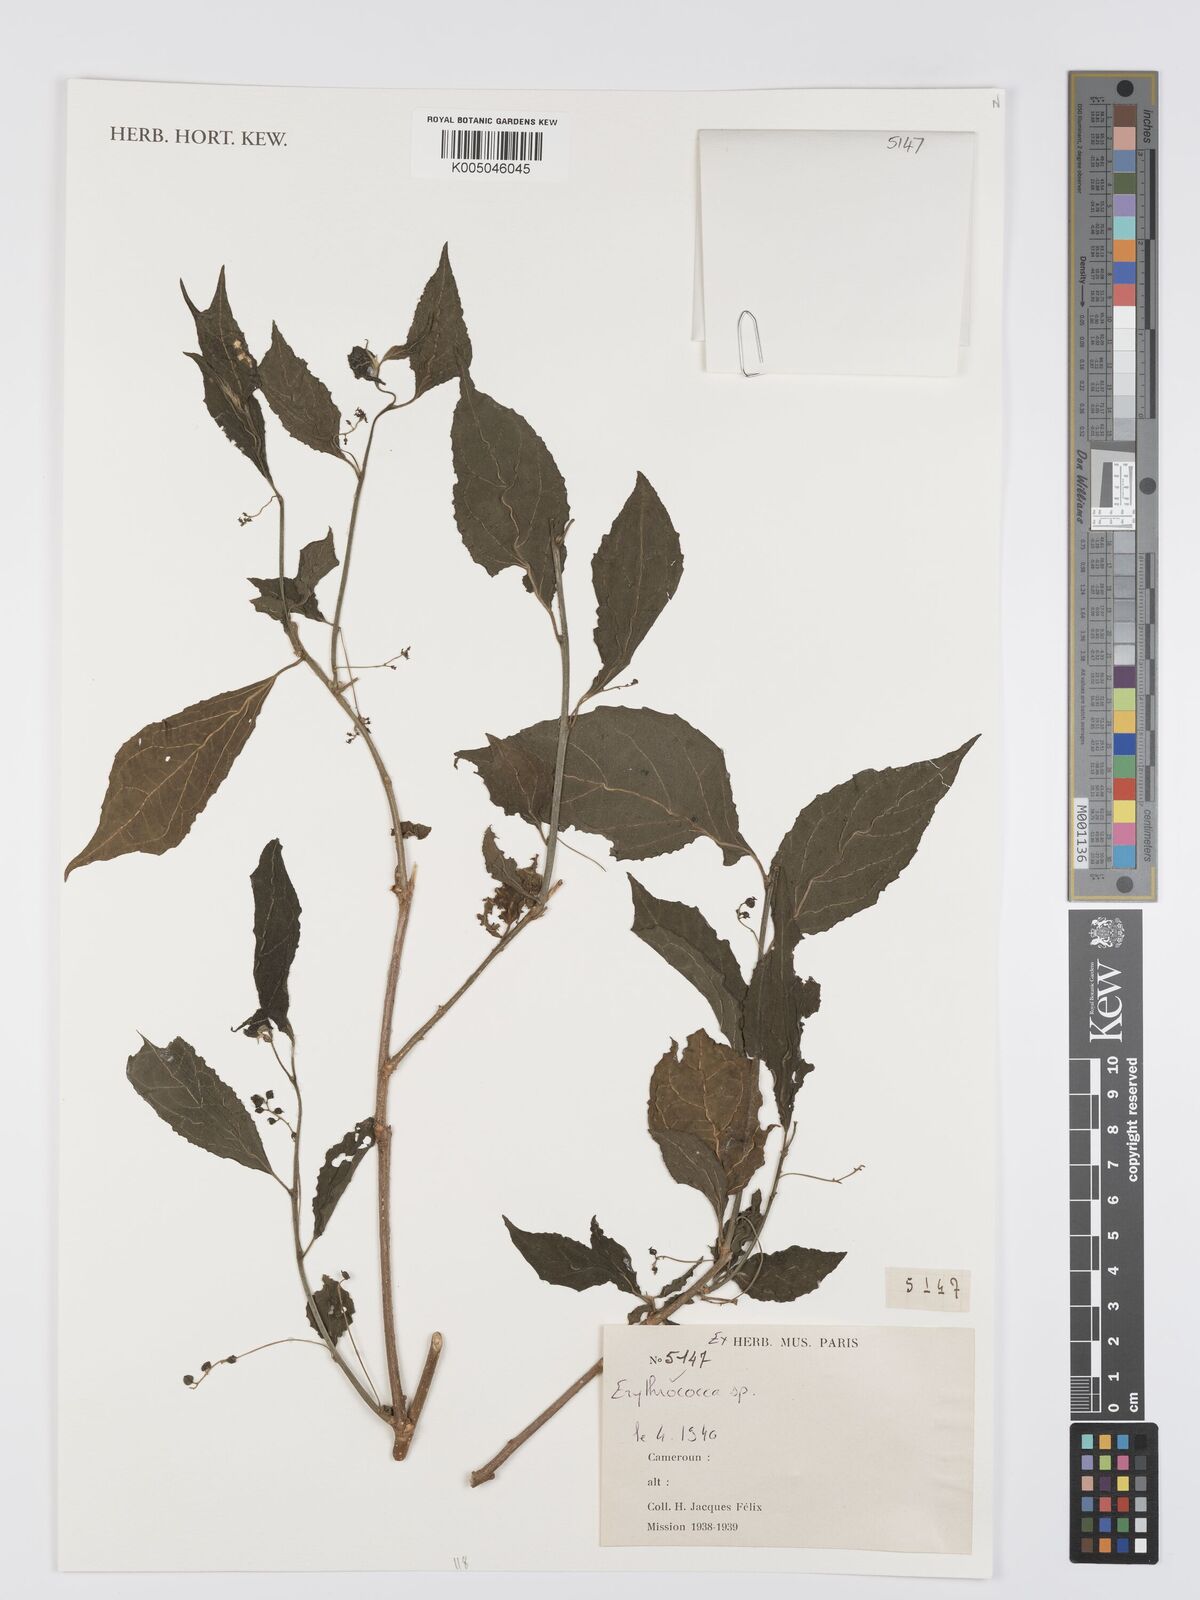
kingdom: Plantae
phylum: Tracheophyta
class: Magnoliopsida
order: Malpighiales
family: Euphorbiaceae
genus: Erythrococca
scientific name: Erythrococca
